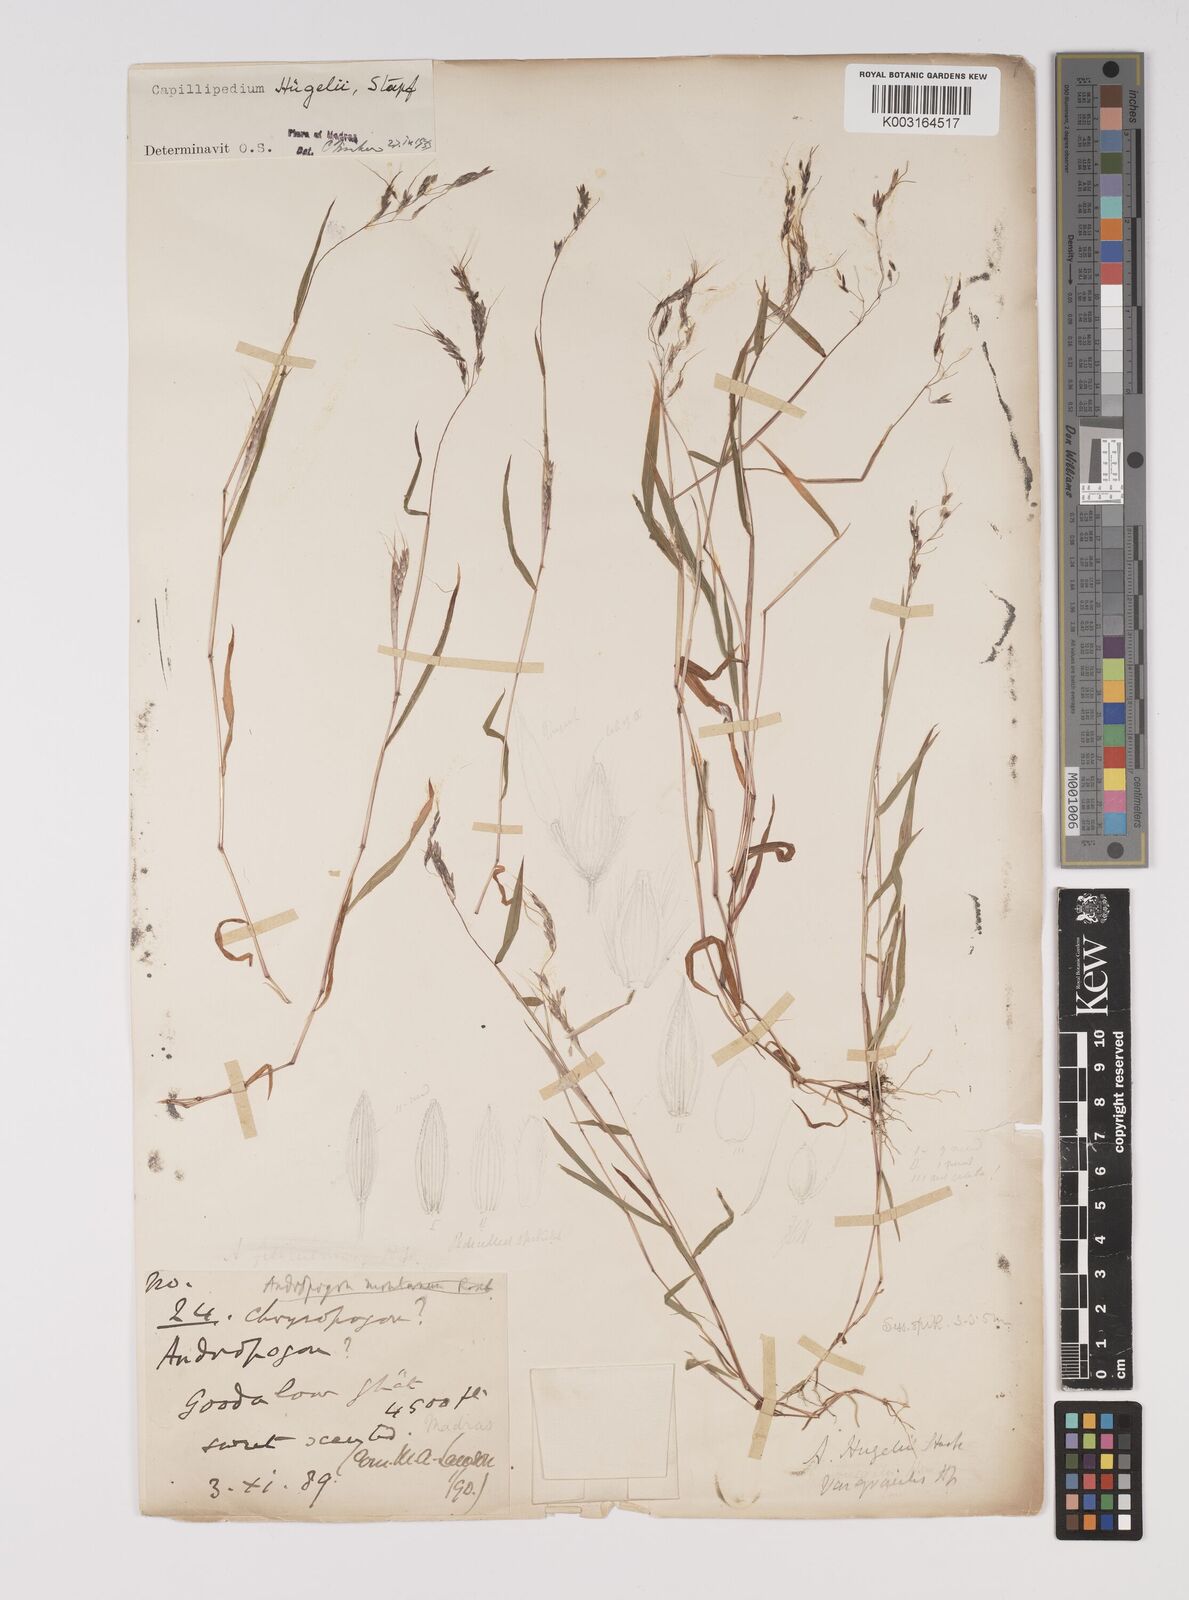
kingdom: Plantae
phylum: Tracheophyta
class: Liliopsida
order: Poales
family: Poaceae
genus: Capillipedium
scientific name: Capillipedium huegelii
